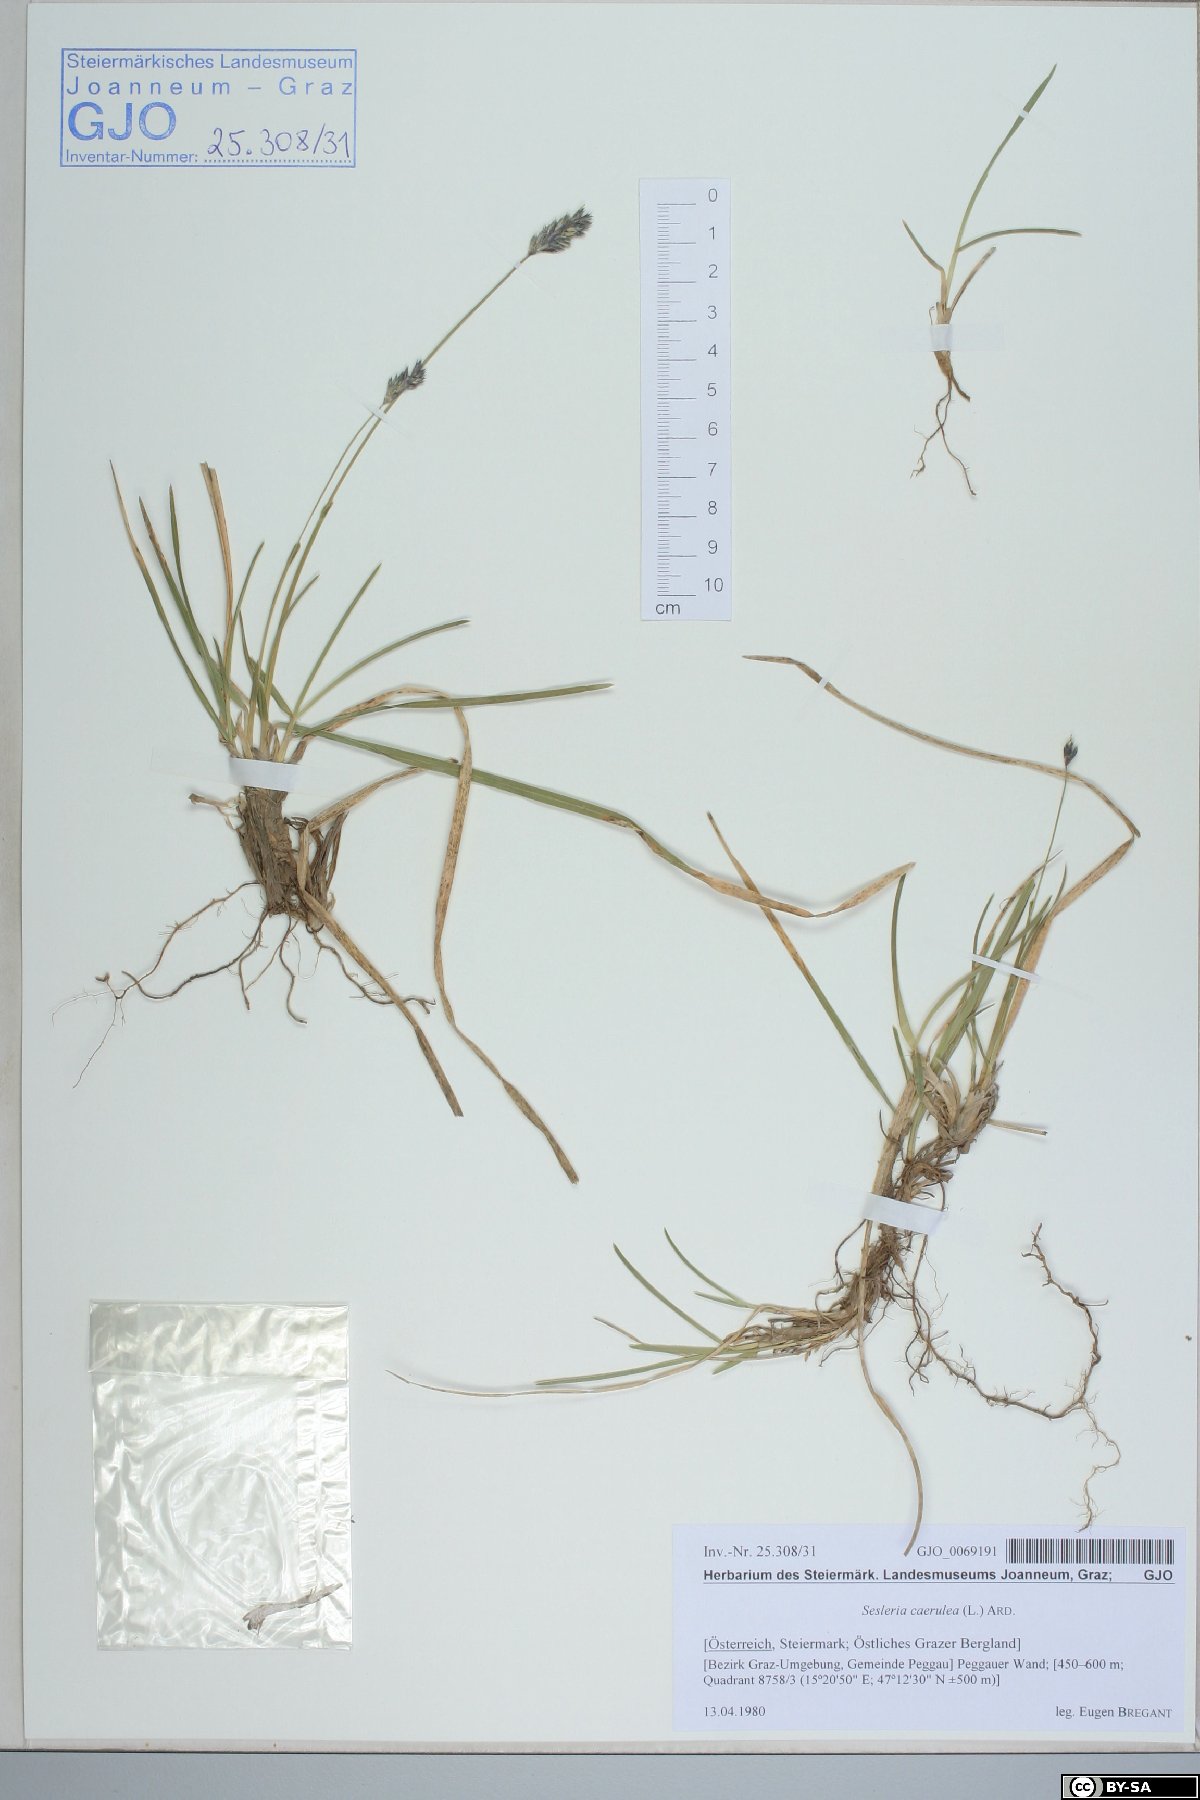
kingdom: Plantae
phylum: Tracheophyta
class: Liliopsida
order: Poales
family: Poaceae
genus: Sesleria
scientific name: Sesleria caerulea
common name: Blue moor-grass
